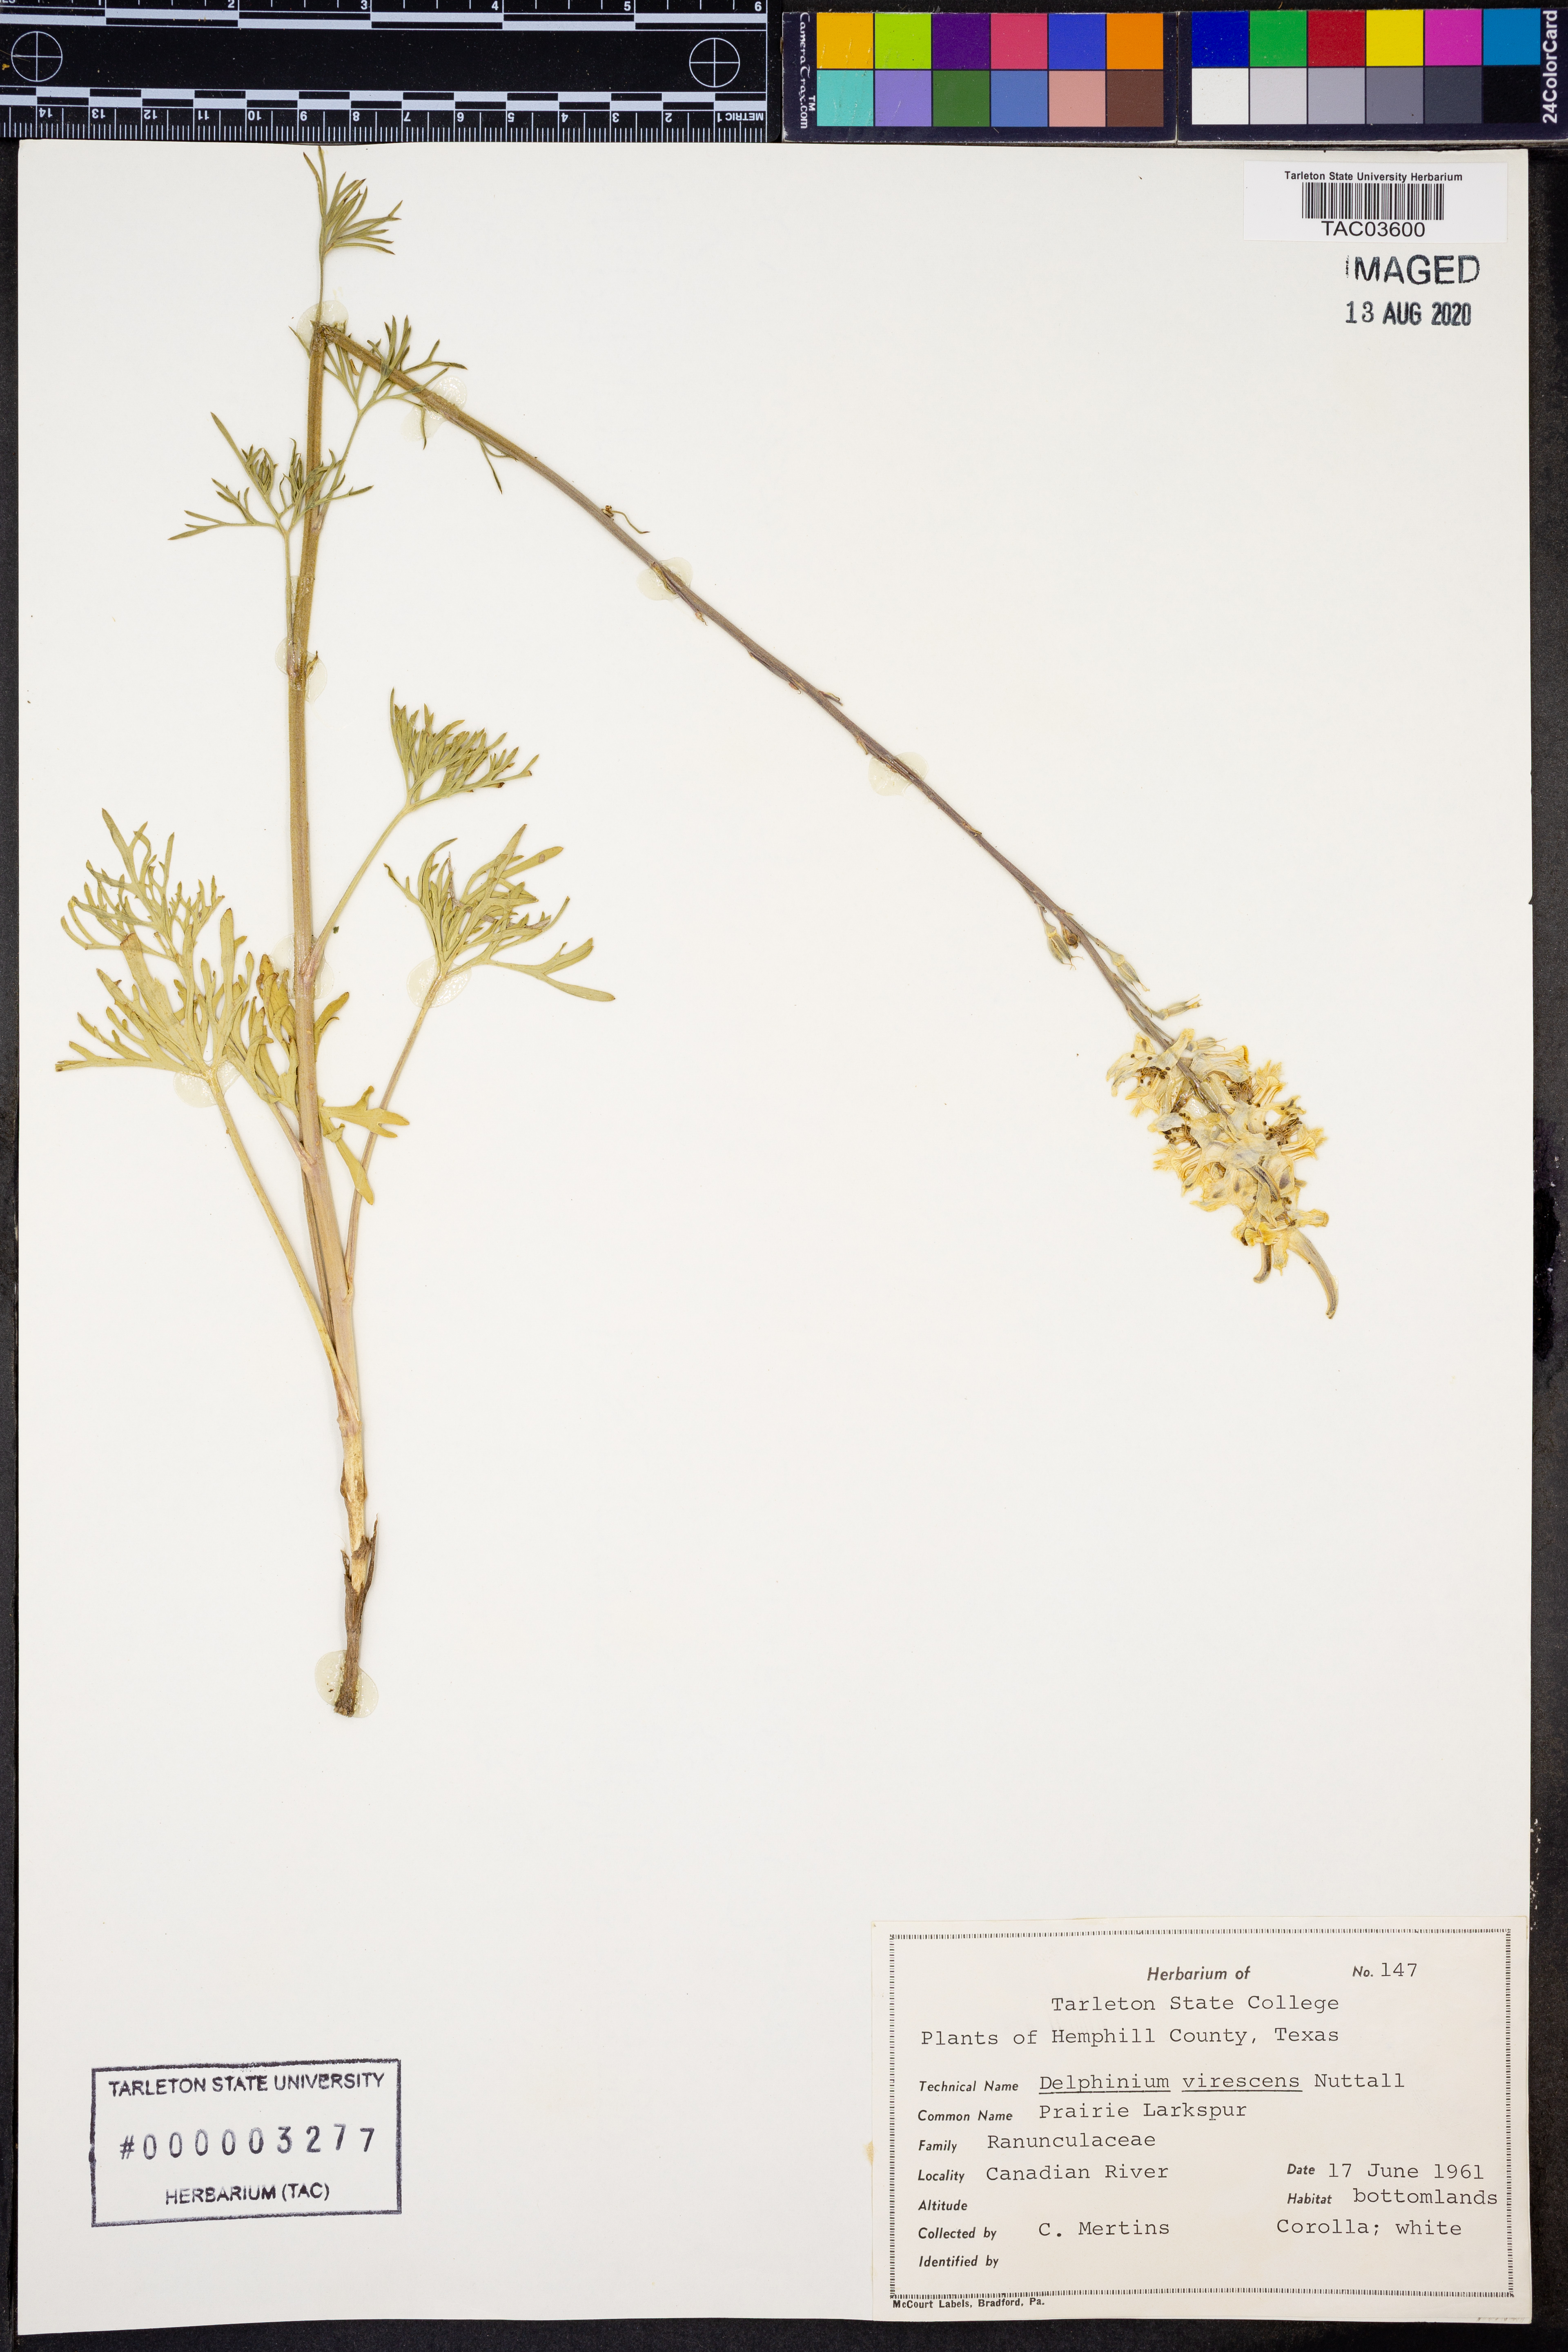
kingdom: Plantae
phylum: Tracheophyta
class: Magnoliopsida
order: Ranunculales
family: Ranunculaceae
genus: Delphinium
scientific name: Delphinium carolinianum
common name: Carolina larkspur
